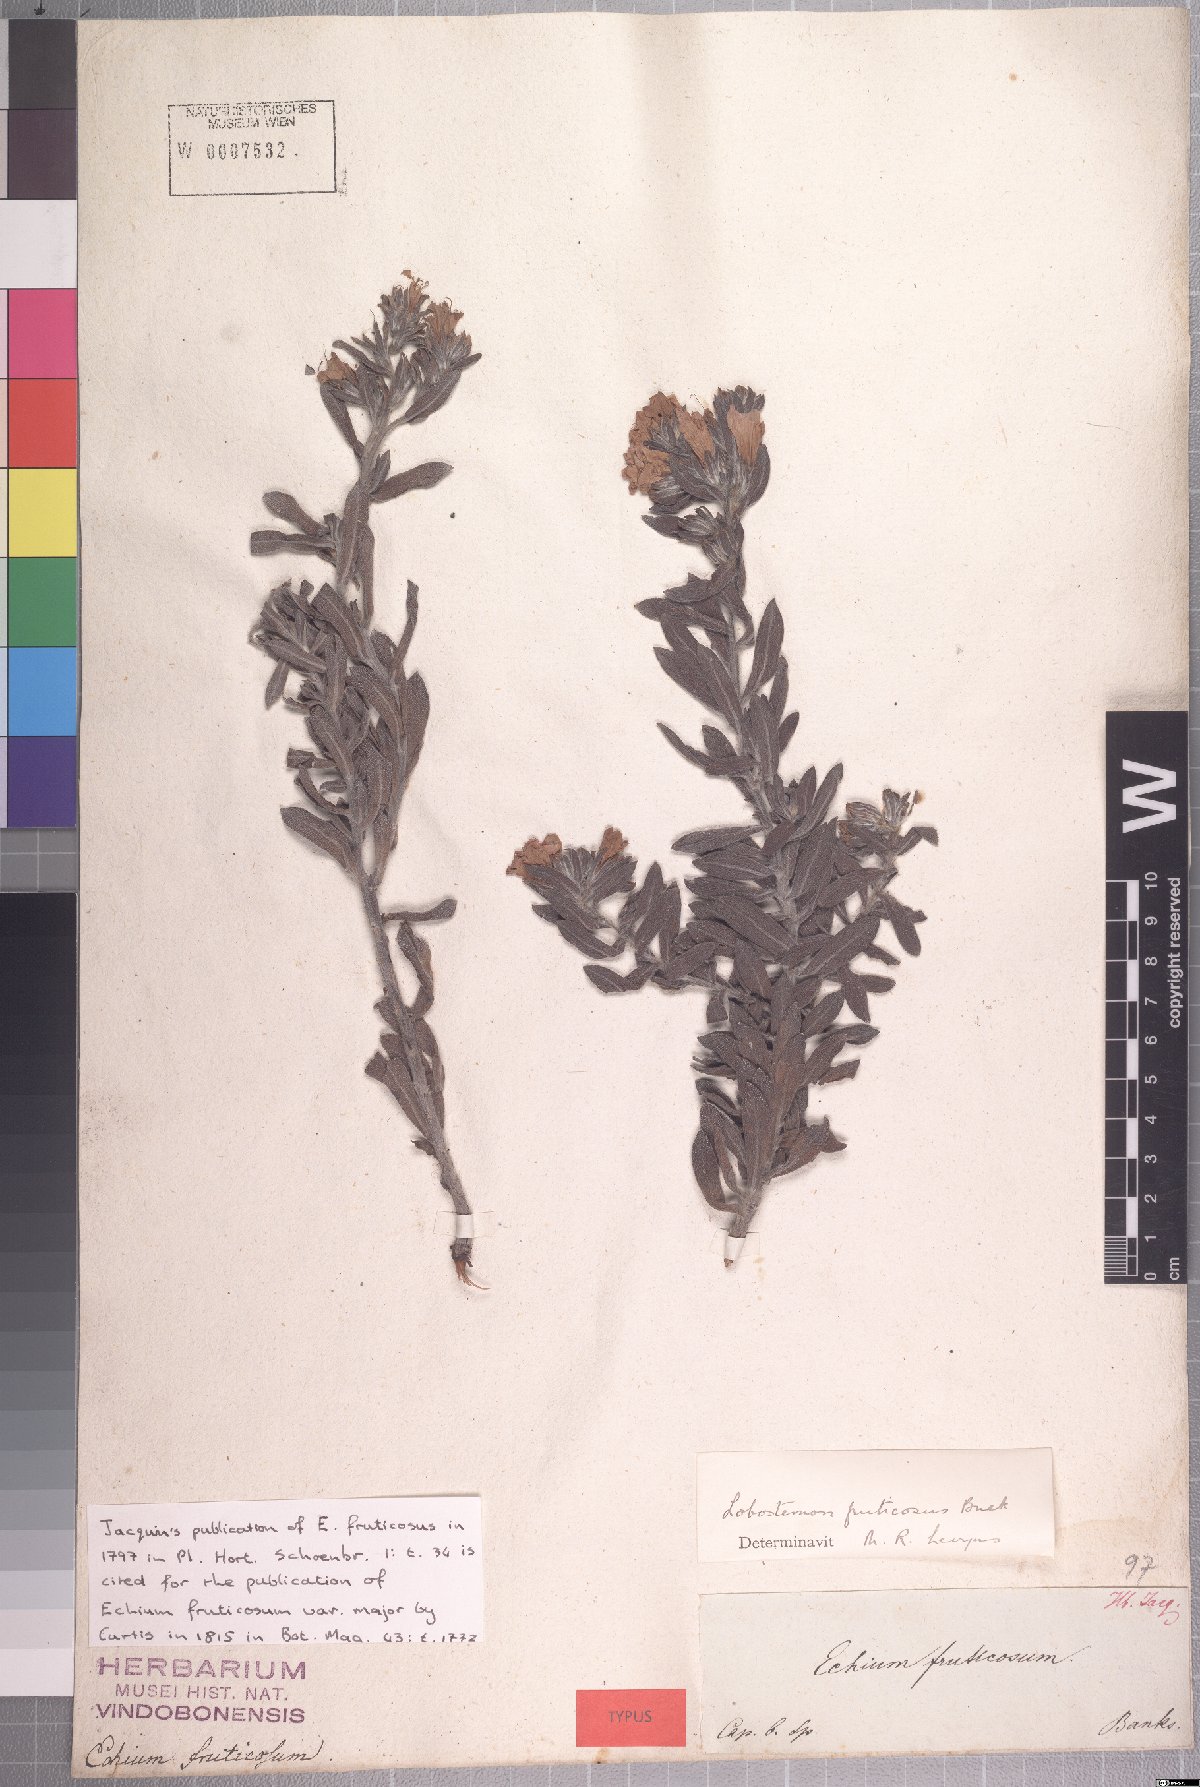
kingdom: Plantae
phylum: Tracheophyta
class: Magnoliopsida
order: Boraginales
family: Boraginaceae
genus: Lobostemon
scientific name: Lobostemon fruticosus
